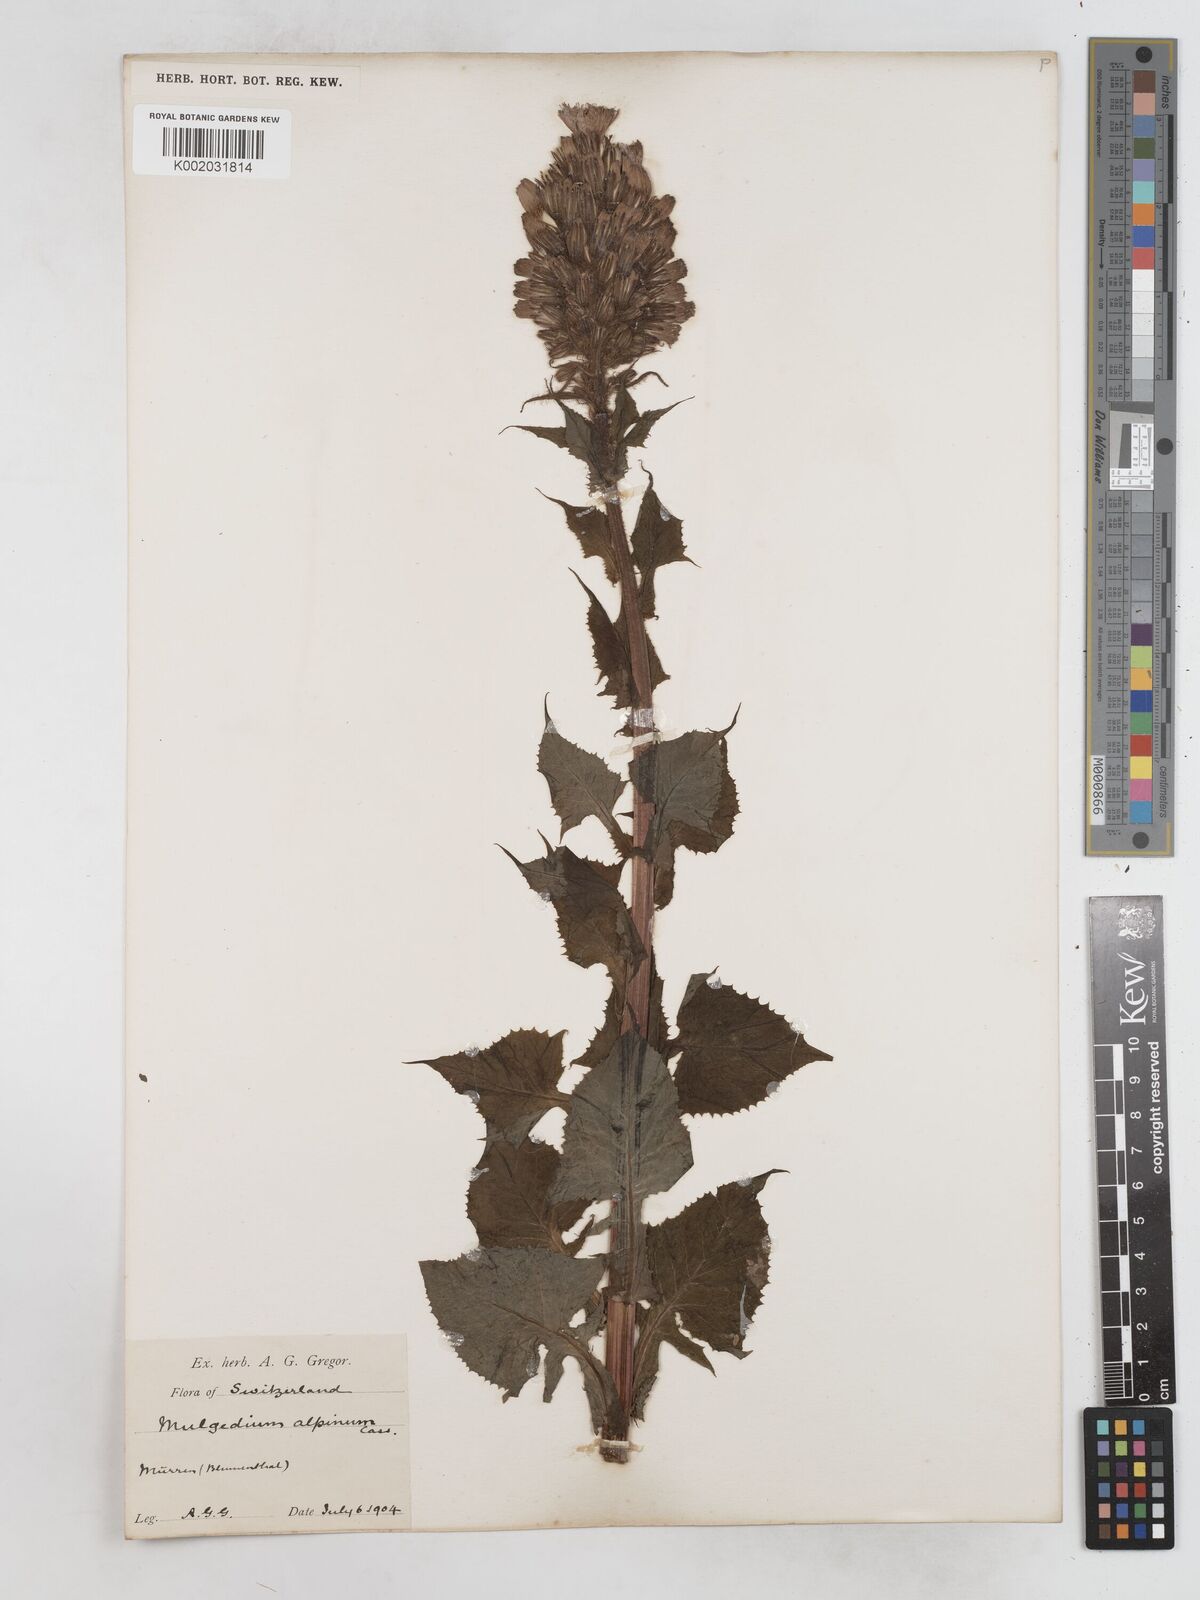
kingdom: Plantae
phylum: Tracheophyta
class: Magnoliopsida
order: Asterales
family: Asteraceae
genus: Cicerbita
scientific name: Cicerbita alpina
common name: Alpine blue-sow-thistle
